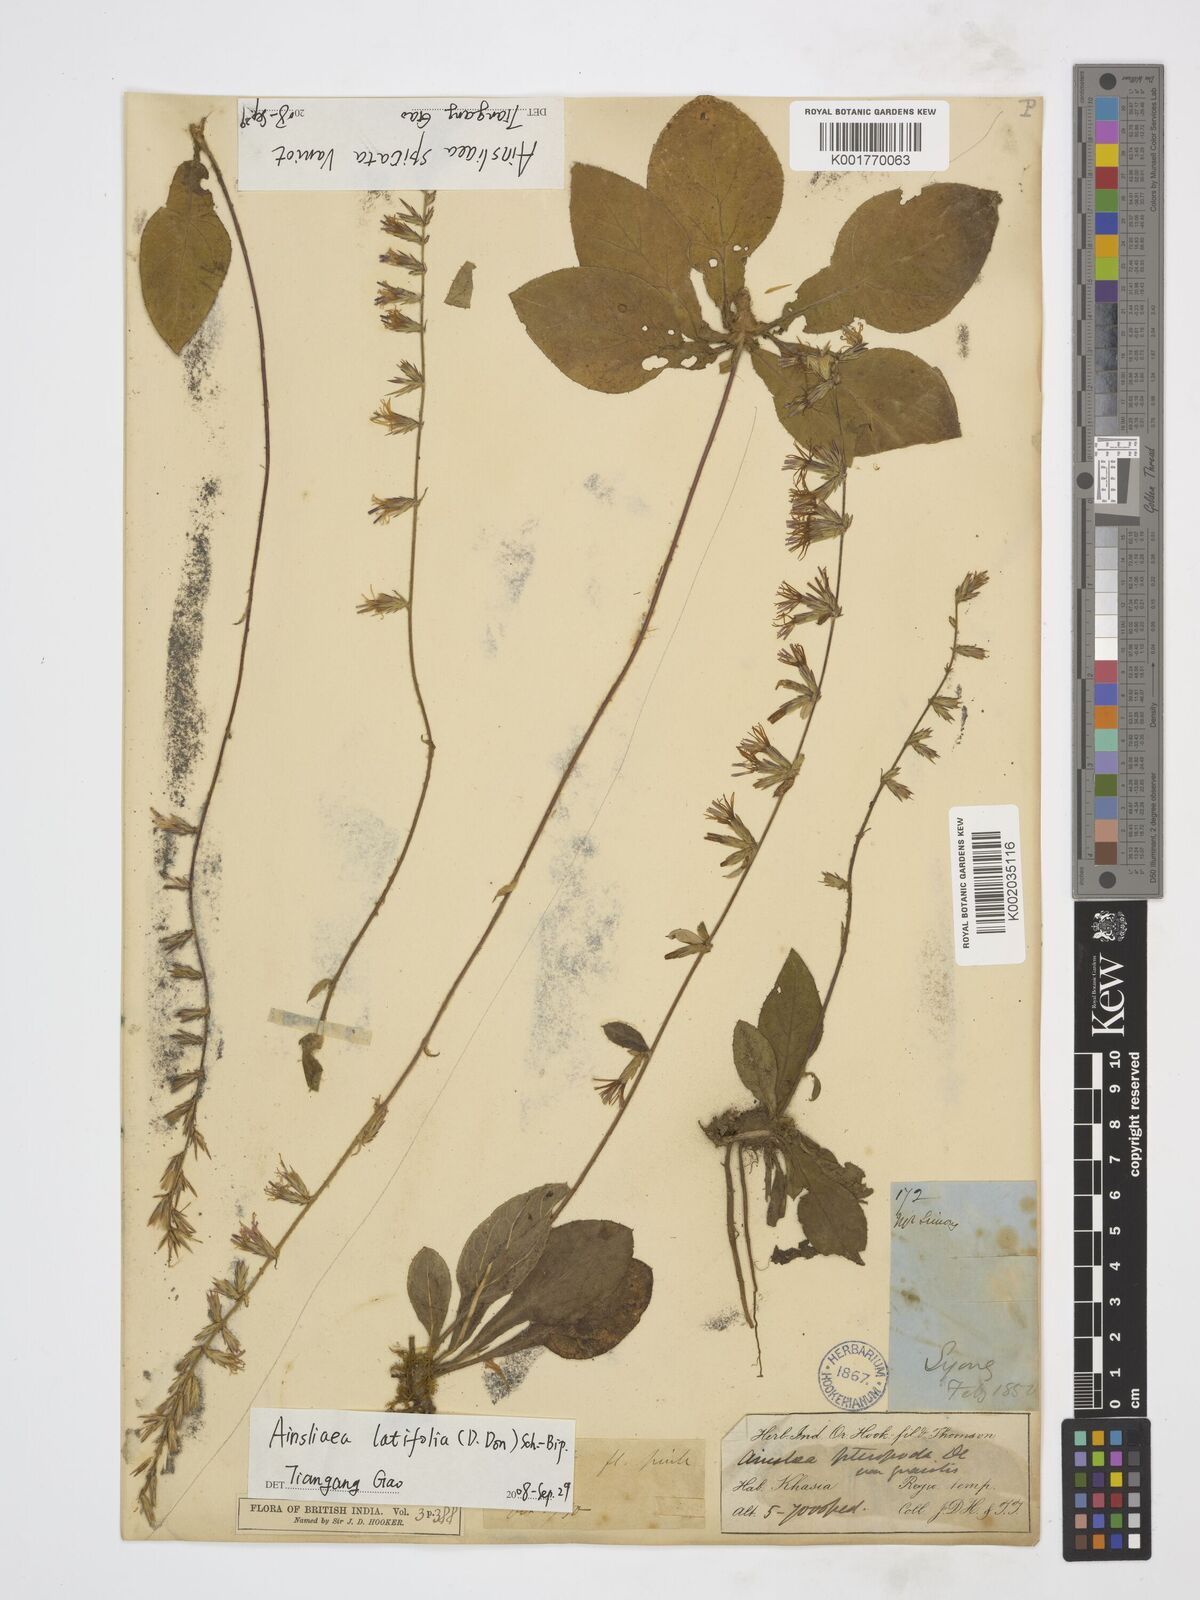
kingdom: Plantae
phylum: Tracheophyta
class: Magnoliopsida
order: Asterales
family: Asteraceae
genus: Ainsliaea
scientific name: Ainsliaea spicata
